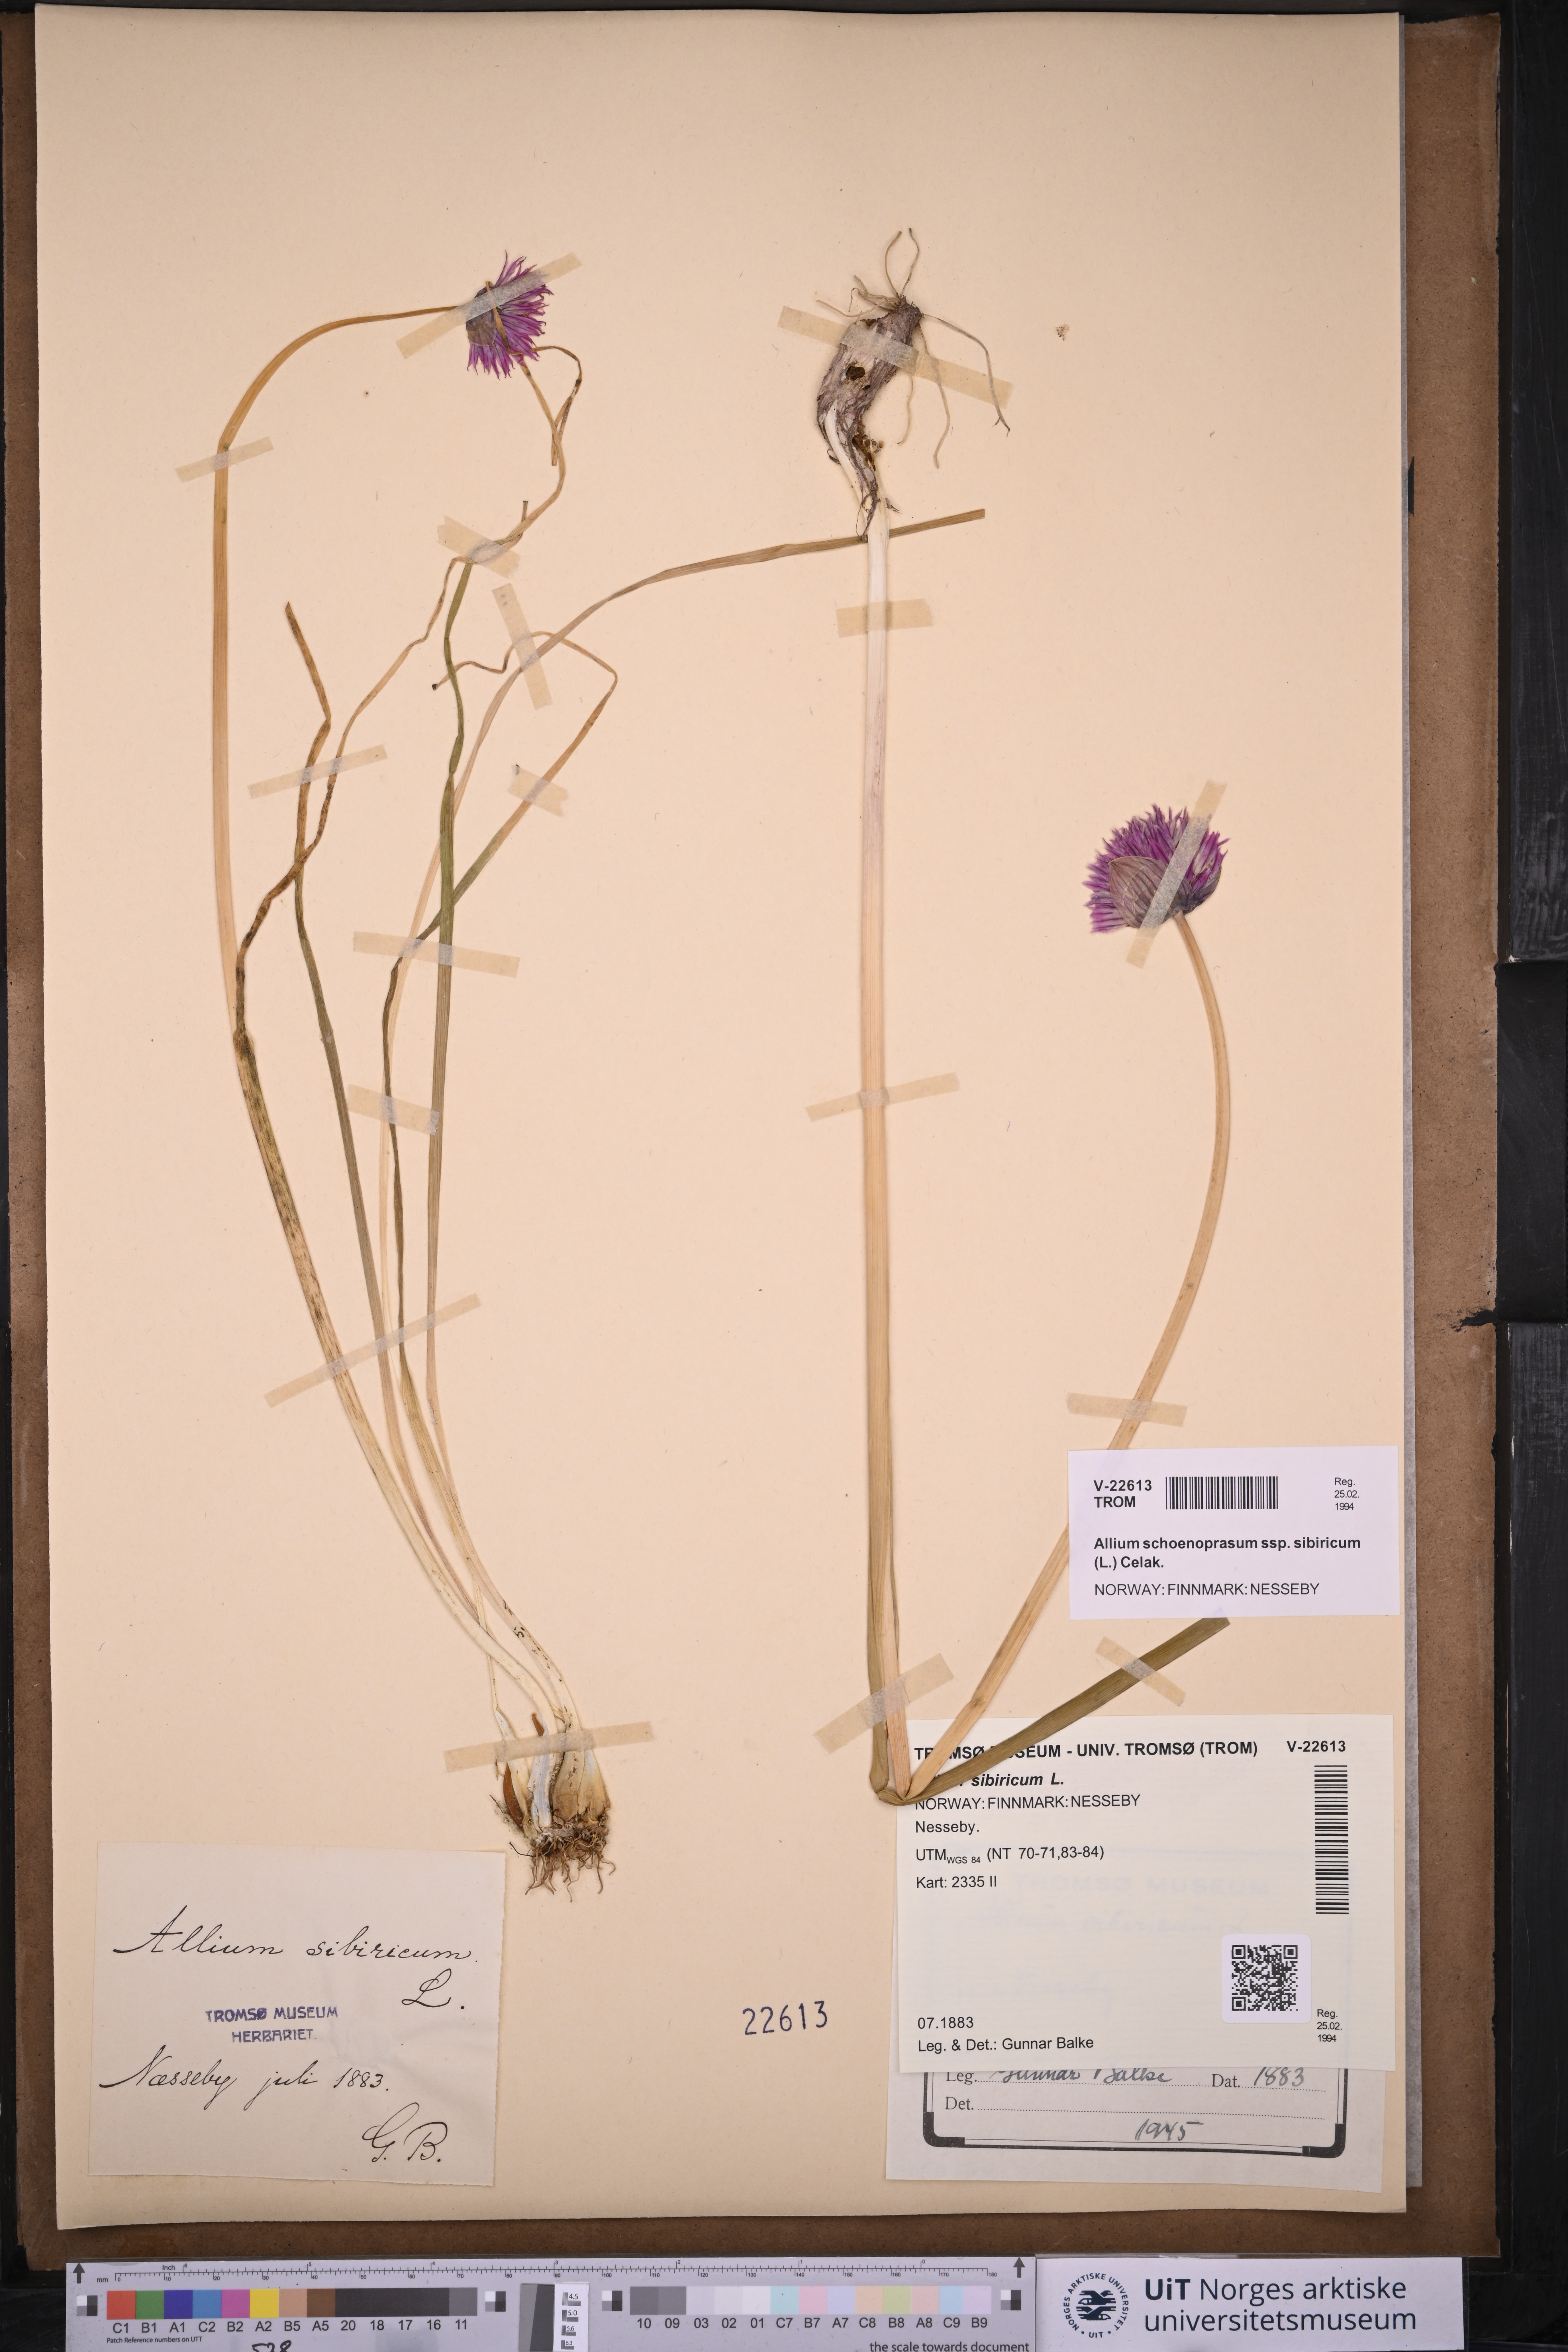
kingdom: Plantae
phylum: Tracheophyta
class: Liliopsida
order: Asparagales
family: Amaryllidaceae
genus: Allium
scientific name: Allium schoenoprasum
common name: Chives
